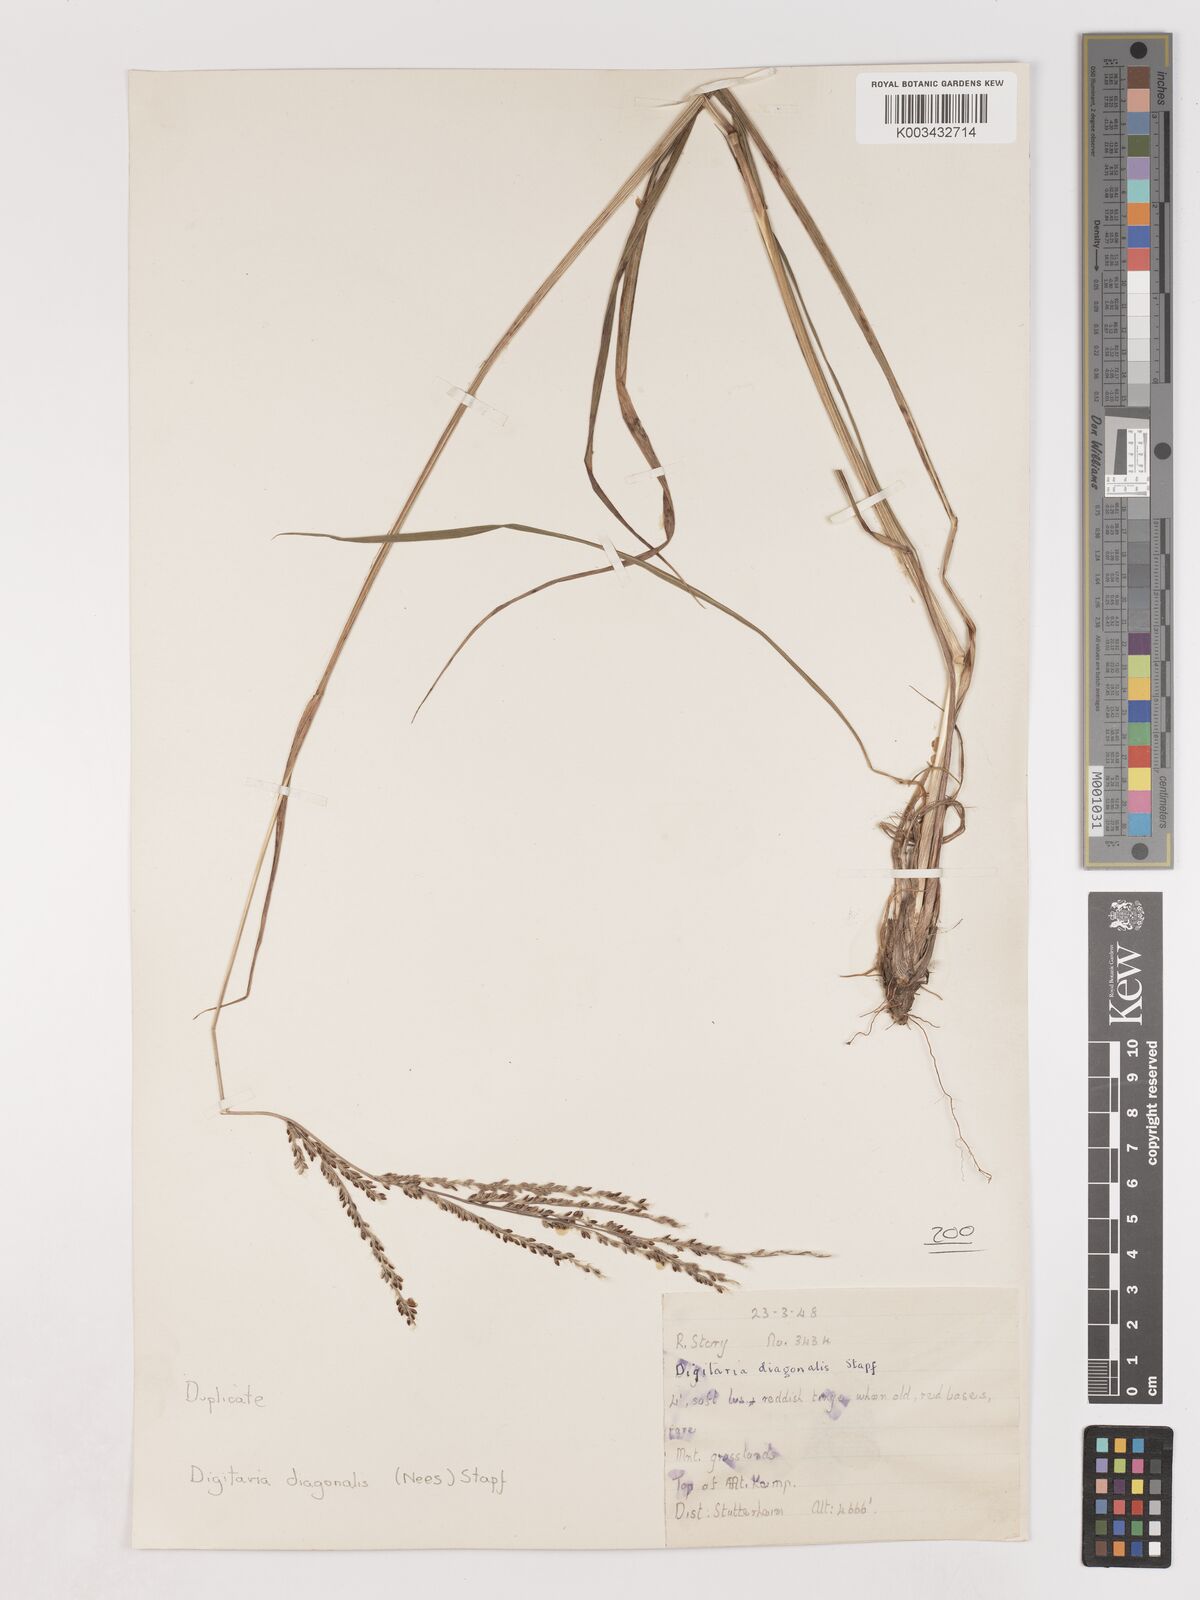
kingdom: Plantae
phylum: Tracheophyta
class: Liliopsida
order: Poales
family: Poaceae
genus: Digitaria
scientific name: Digitaria diagonalis
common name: Brown-seed finger grass
